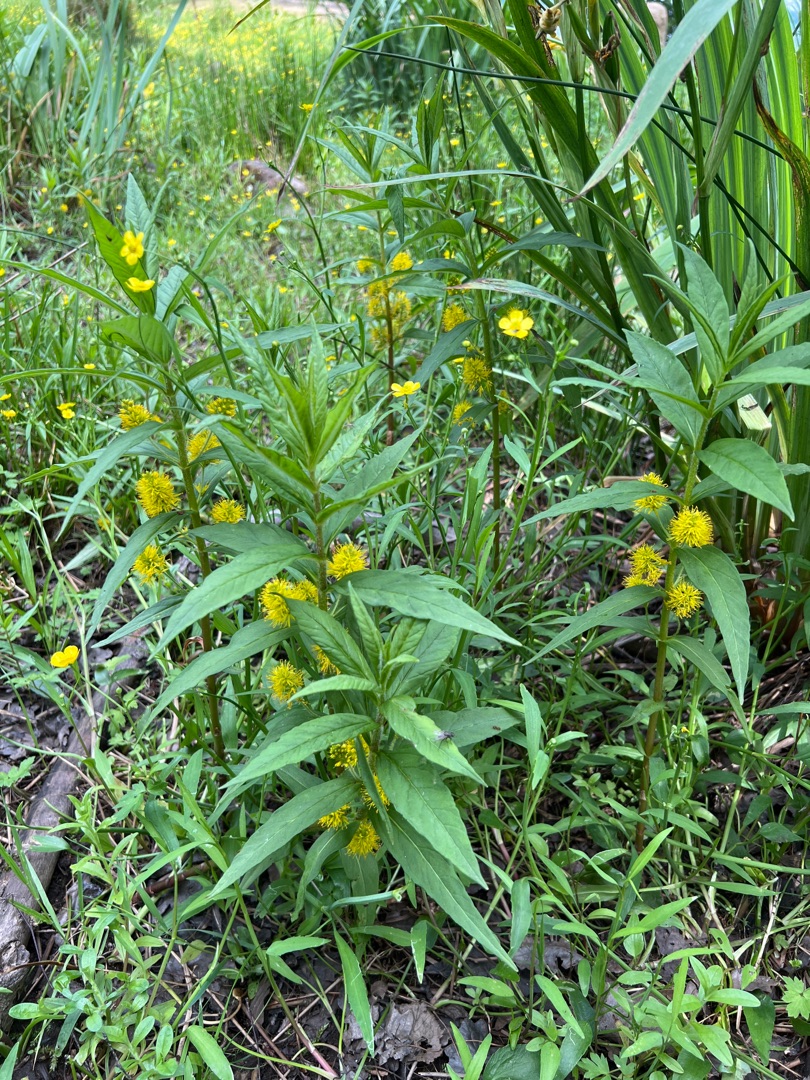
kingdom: Plantae
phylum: Tracheophyta
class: Magnoliopsida
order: Ericales
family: Primulaceae
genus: Lysimachia
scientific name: Lysimachia thyrsiflora
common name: Dusk-fredløs
